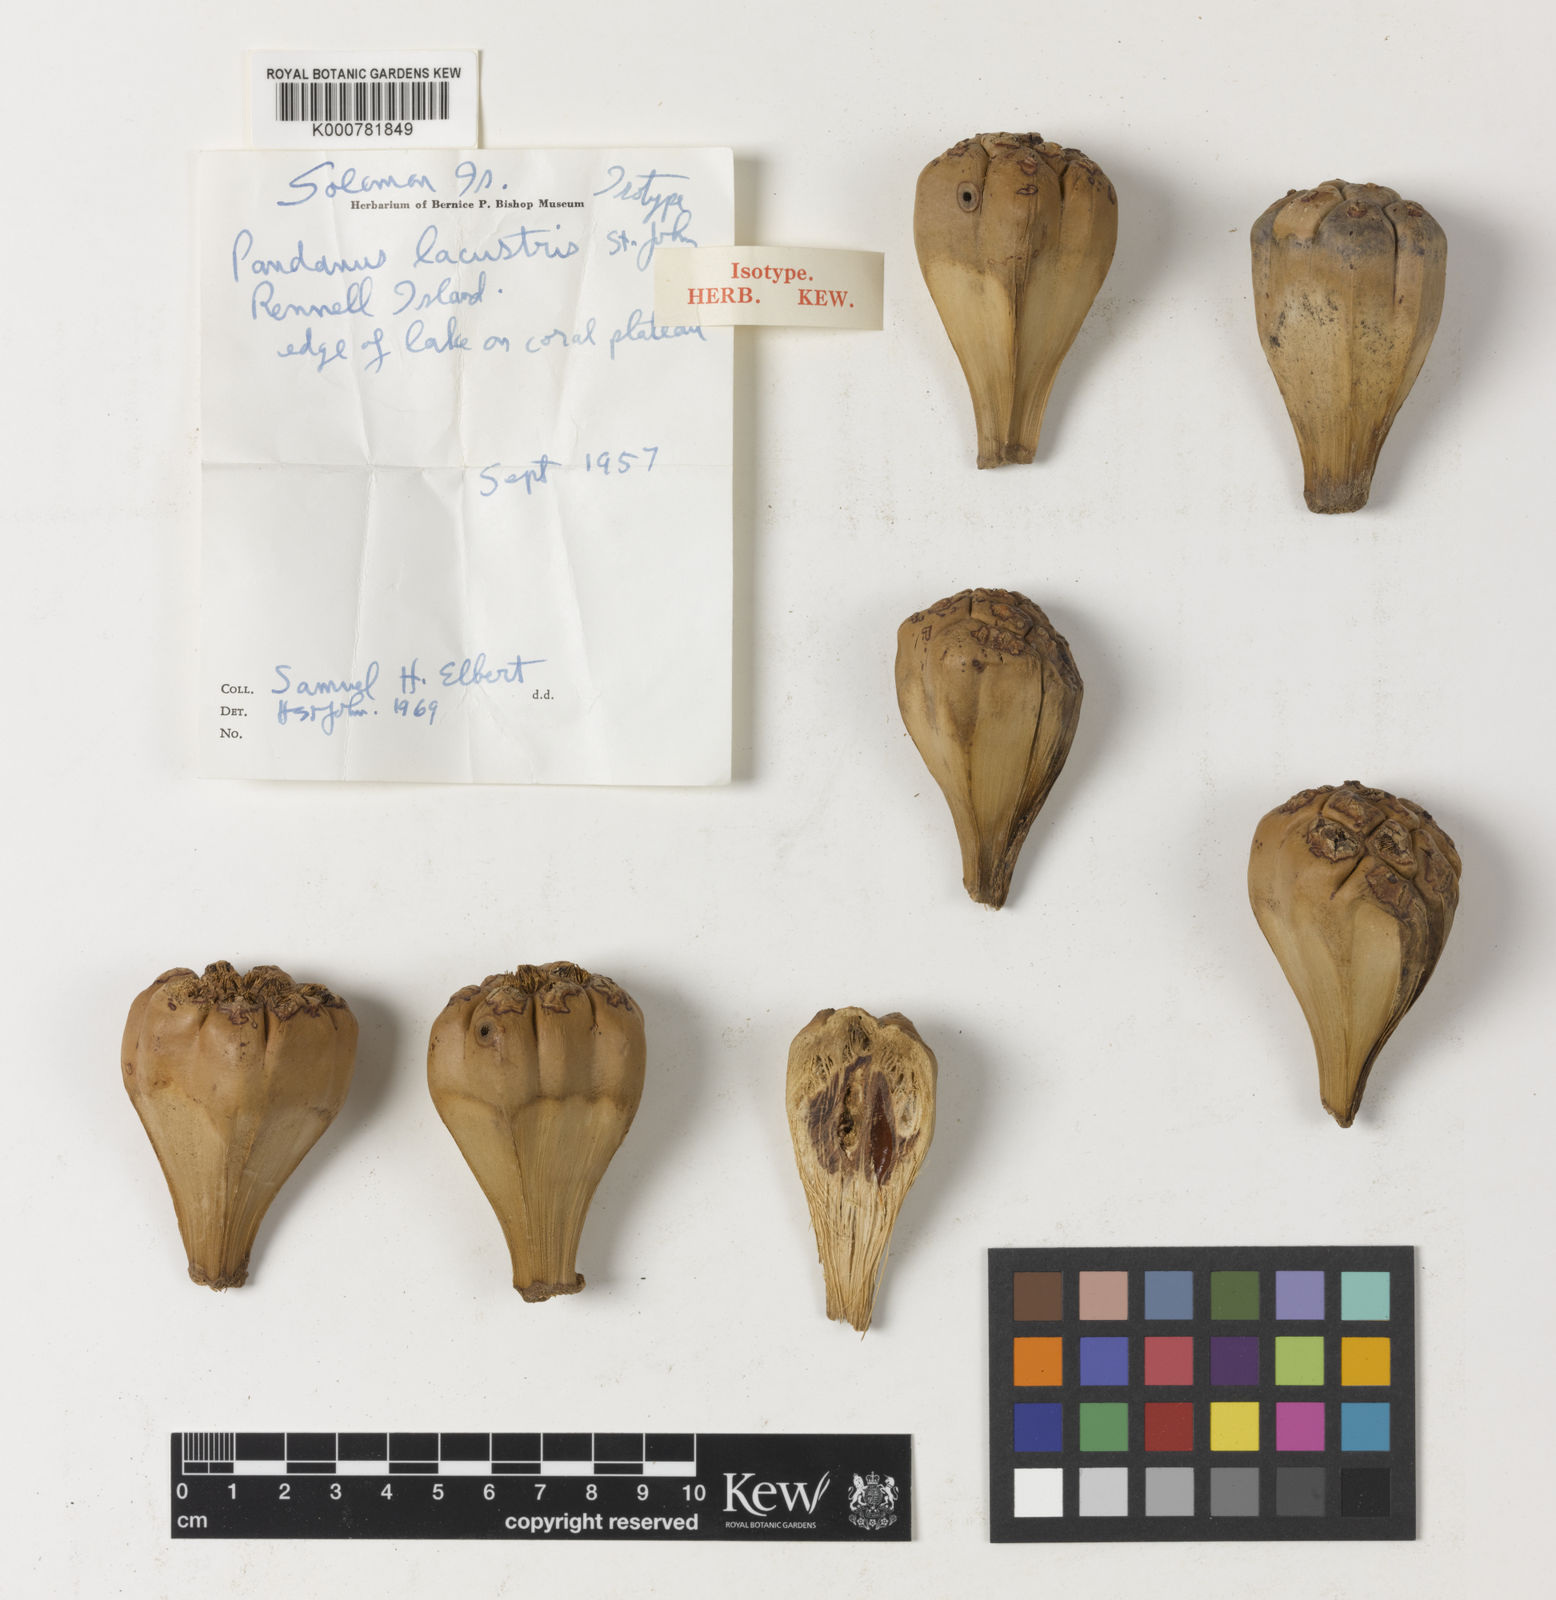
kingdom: Plantae
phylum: Tracheophyta
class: Liliopsida
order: Pandanales
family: Pandanaceae
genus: Pandanus
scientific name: Pandanus
